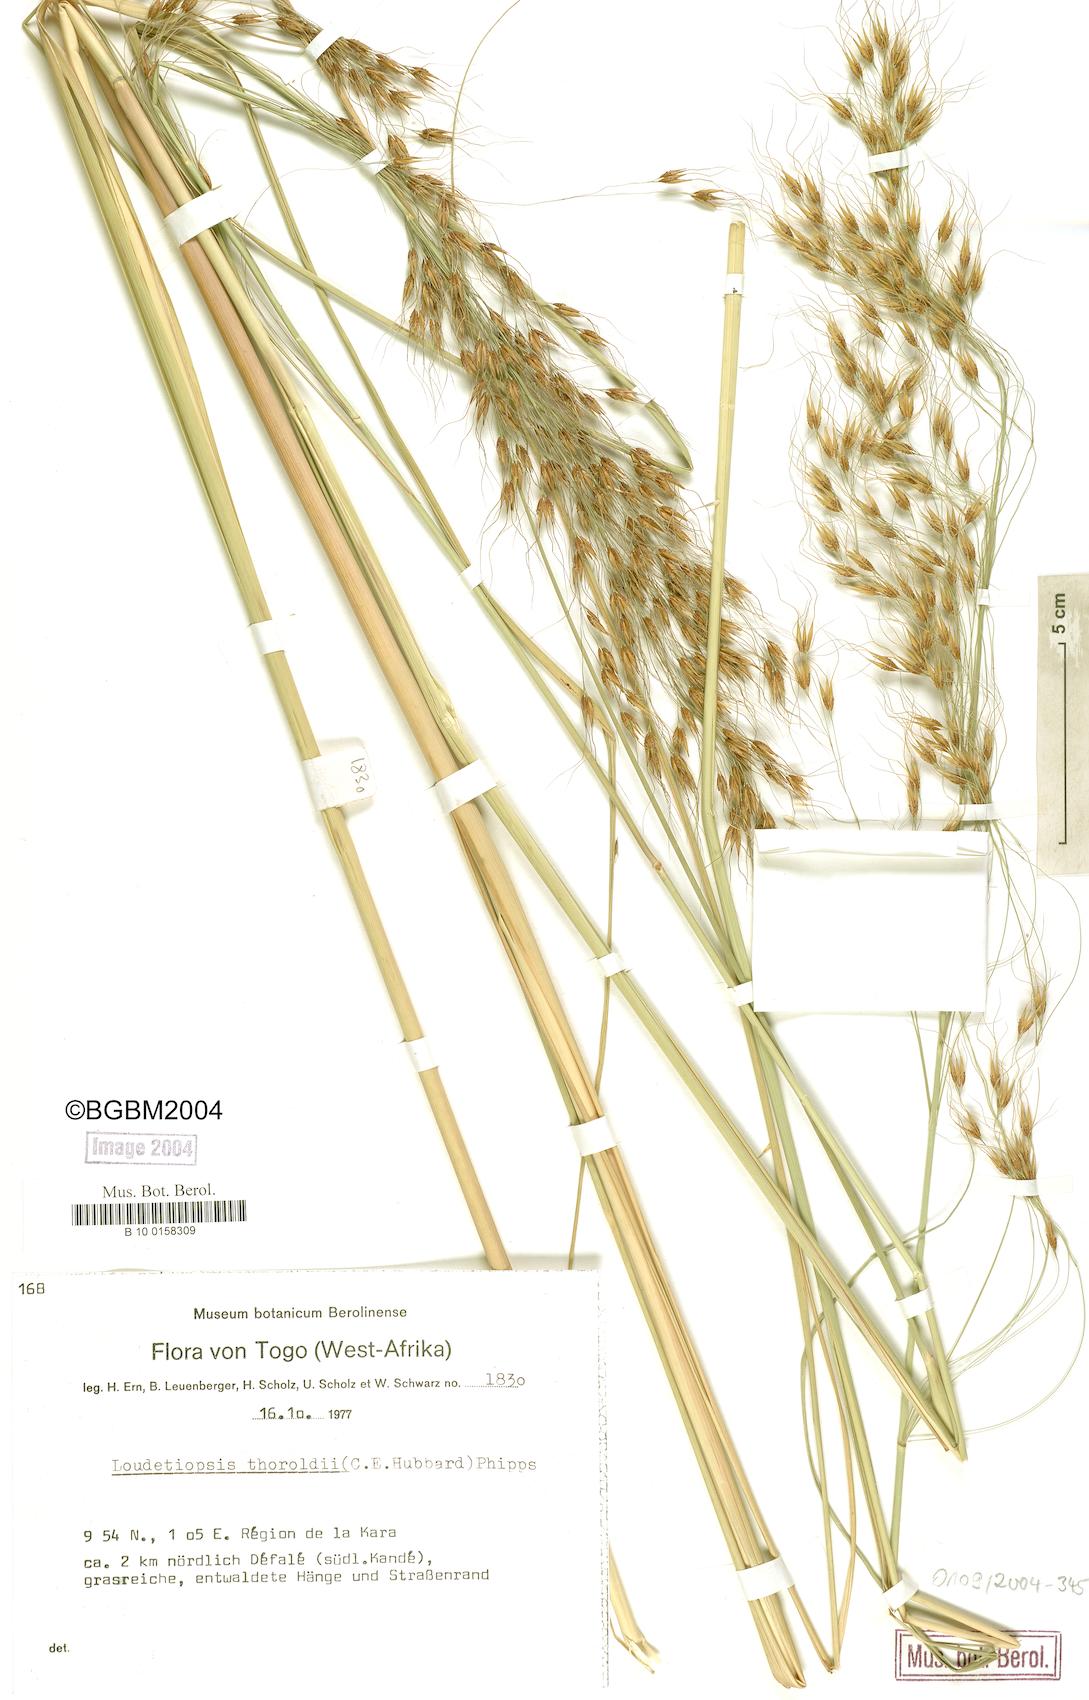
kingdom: Plantae
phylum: Tracheophyta
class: Liliopsida
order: Poales
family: Poaceae
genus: Loudetiopsis
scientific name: Loudetiopsis thoroldii
